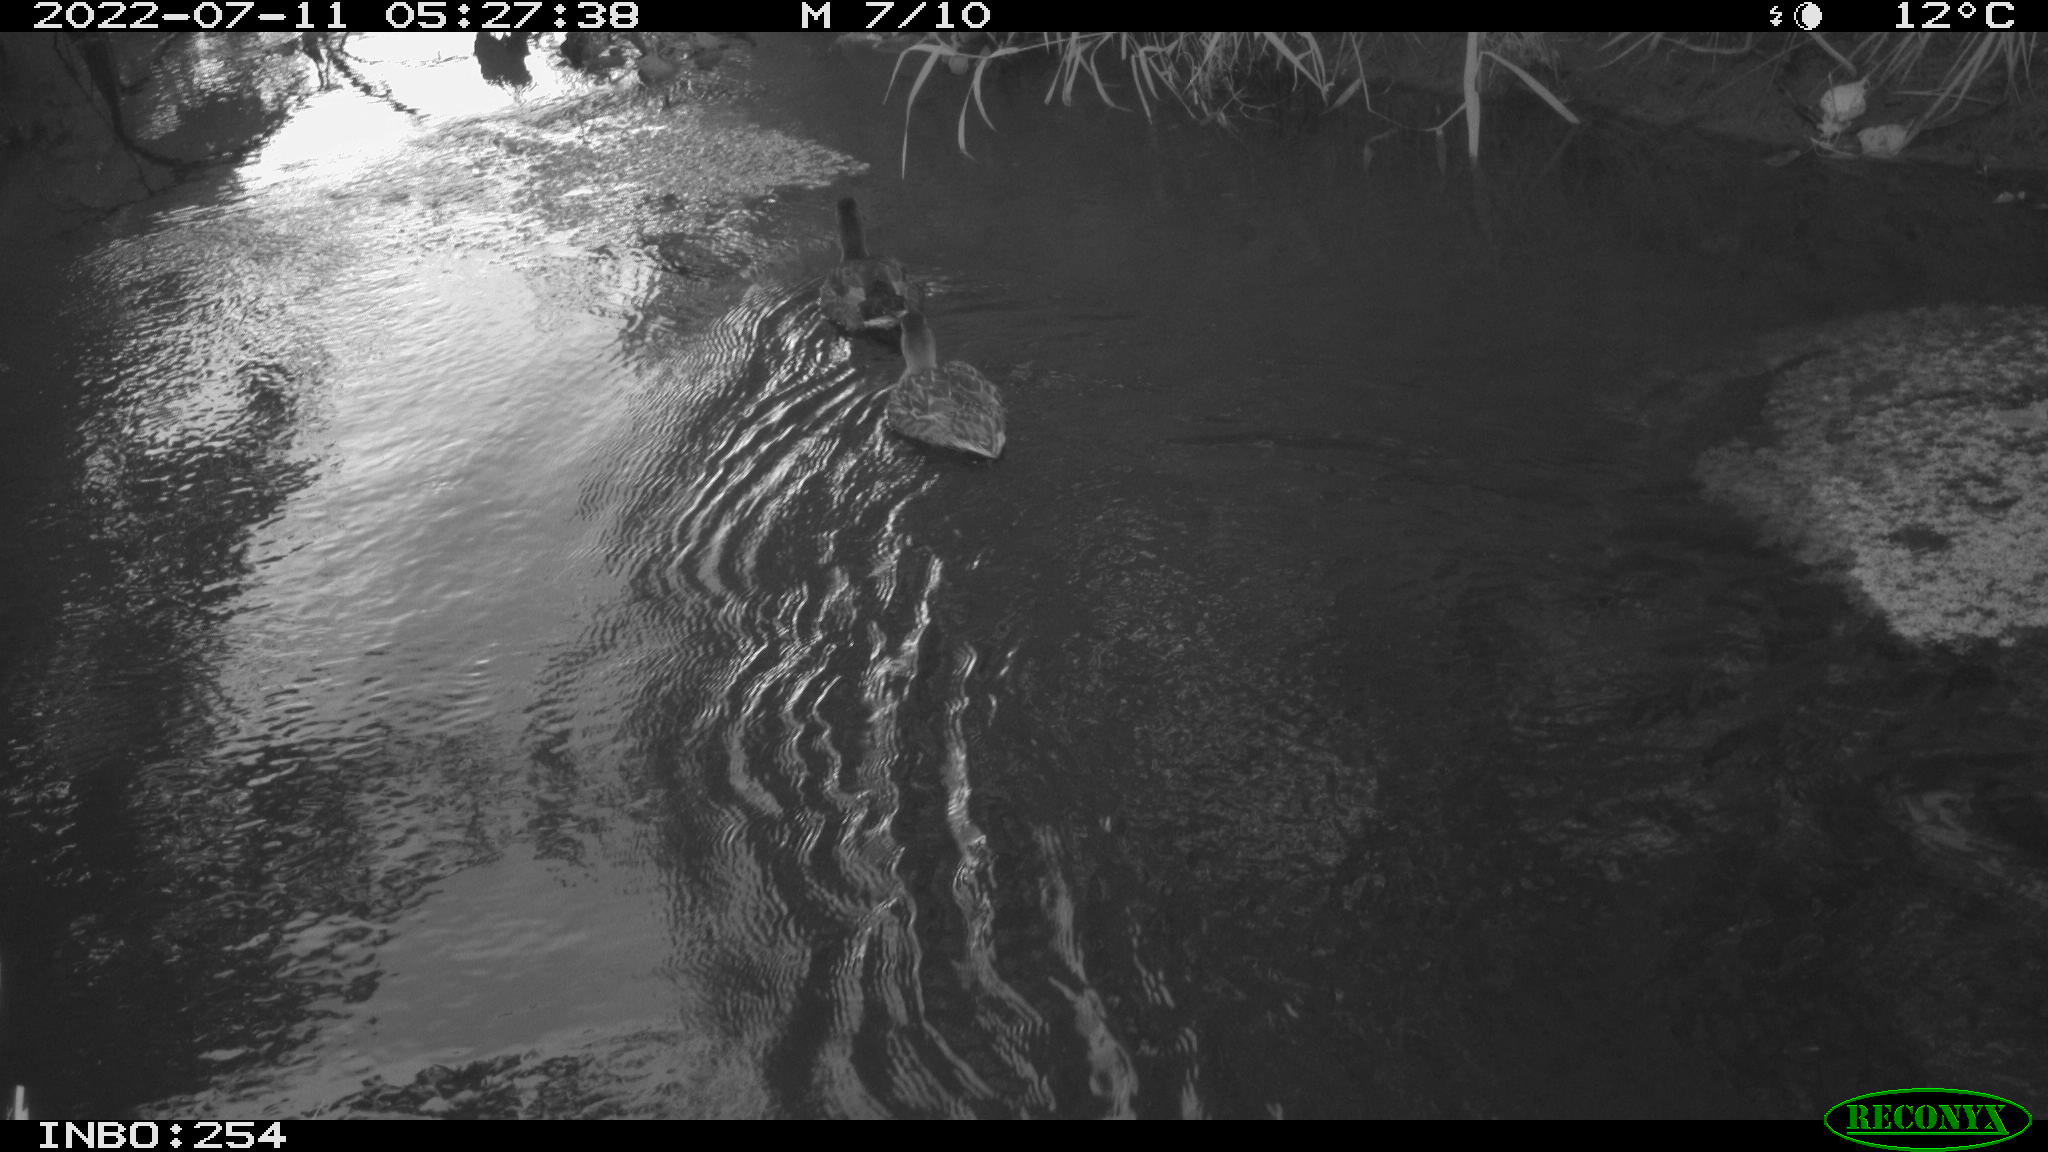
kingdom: Animalia
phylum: Chordata
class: Aves
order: Anseriformes
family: Anatidae
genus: Anas
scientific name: Anas platyrhynchos
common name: Mallard
